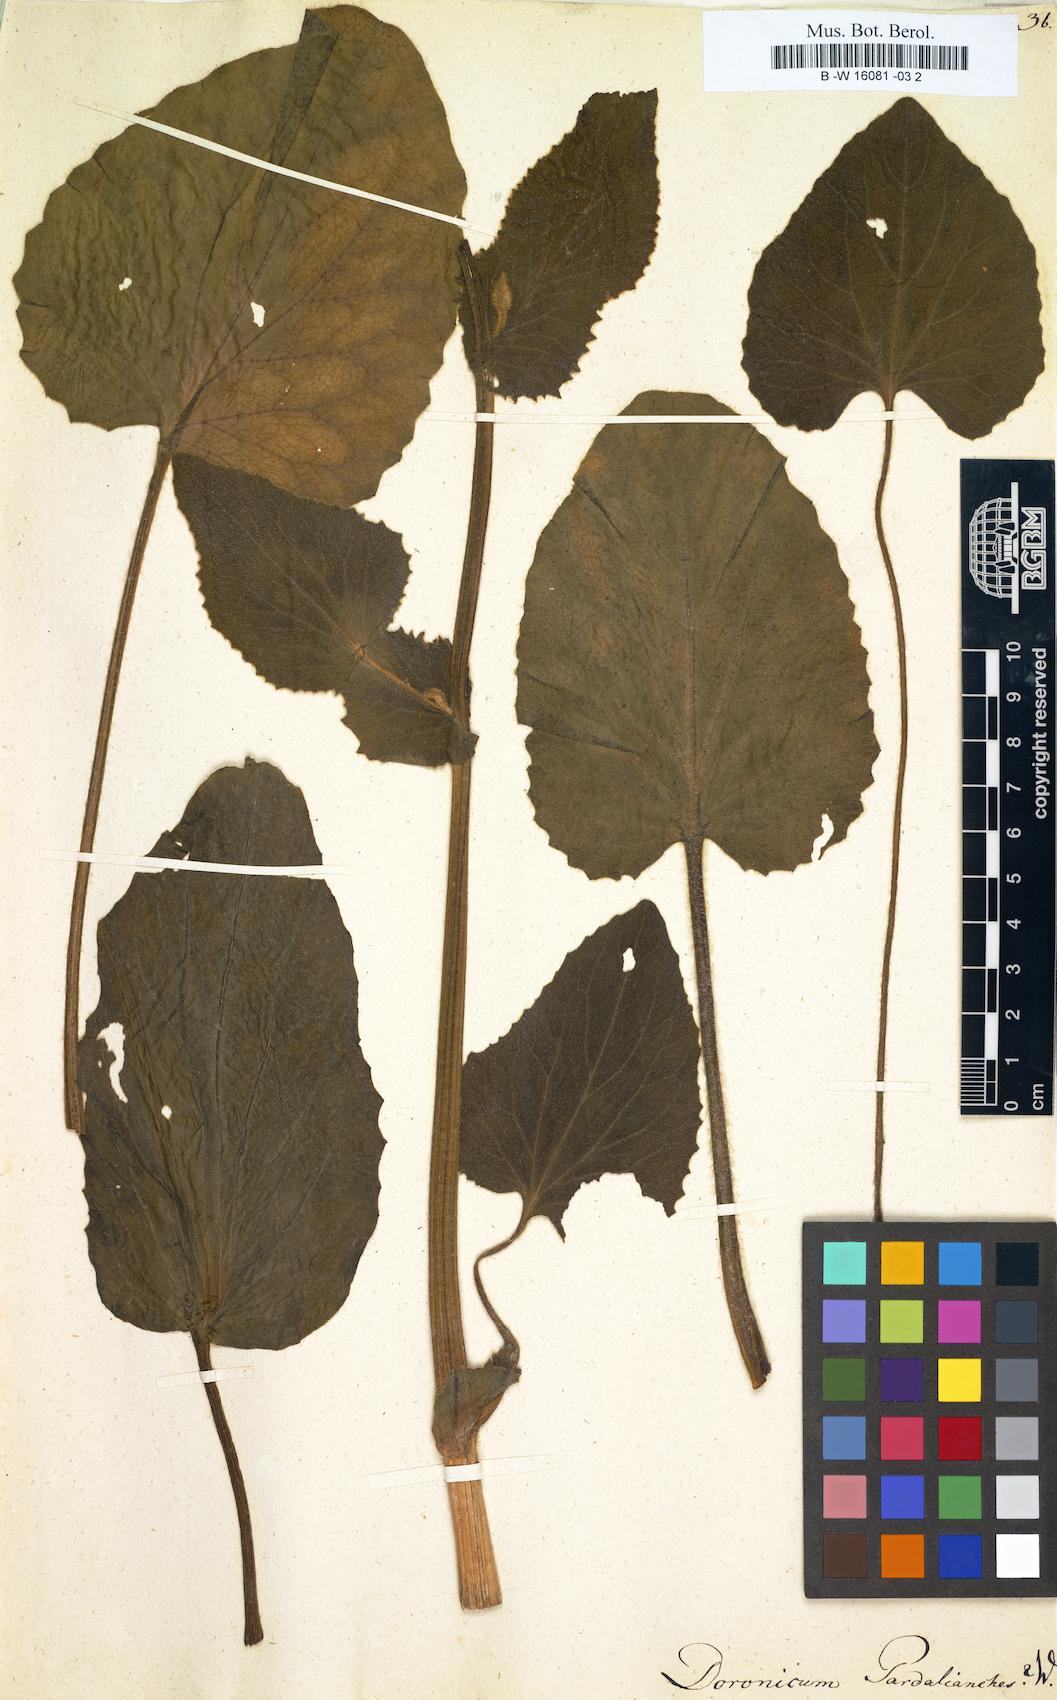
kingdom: Plantae
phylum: Tracheophyta
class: Magnoliopsida
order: Asterales
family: Asteraceae
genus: Doronicum
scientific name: Doronicum pardalianches
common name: Leopard's-bane
